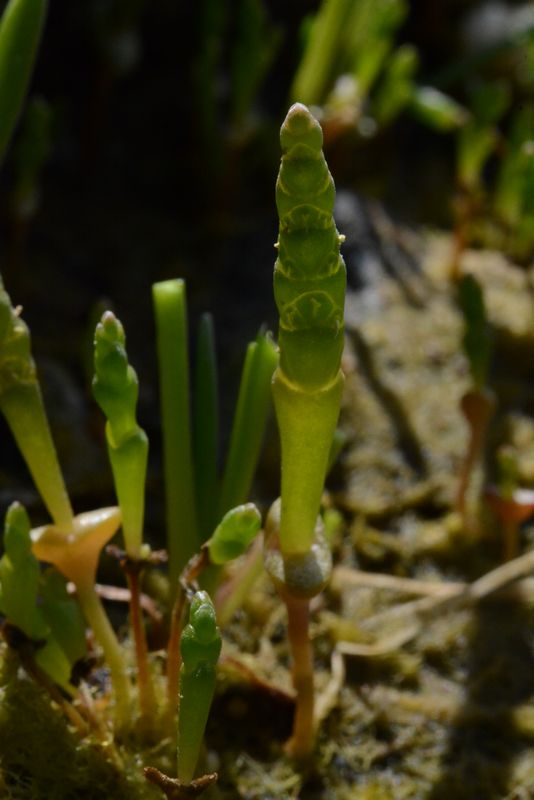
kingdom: Plantae
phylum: Tracheophyta
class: Magnoliopsida
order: Caryophyllales
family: Amaranthaceae
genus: Salicornia
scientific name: Salicornia europaea
